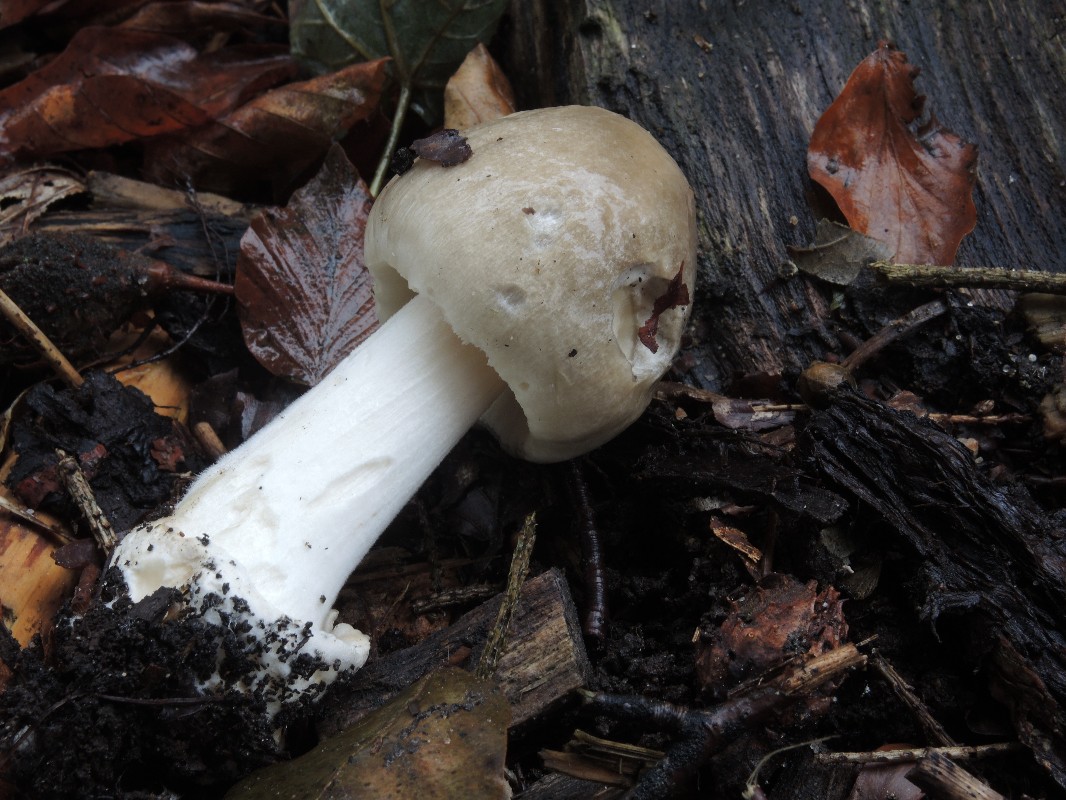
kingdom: Fungi
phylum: Basidiomycota
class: Agaricomycetes
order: Agaricales
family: Pluteaceae
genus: Volvopluteus
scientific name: Volvopluteus gloiocephalus
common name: høj posesvamp
